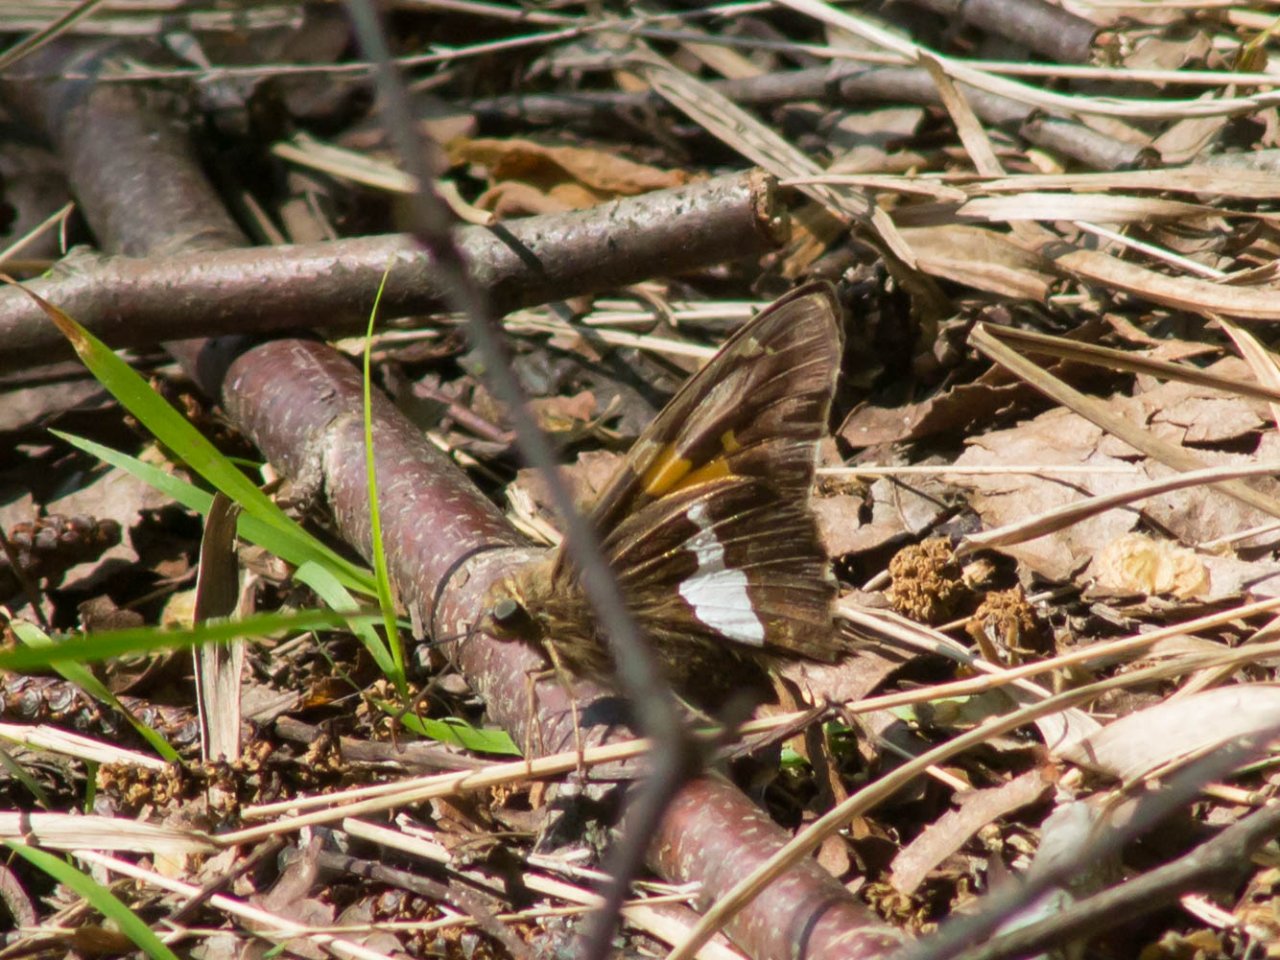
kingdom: Animalia
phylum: Arthropoda
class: Insecta
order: Lepidoptera
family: Hesperiidae
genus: Epargyreus
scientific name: Epargyreus clarus
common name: Silver-spotted Skipper
